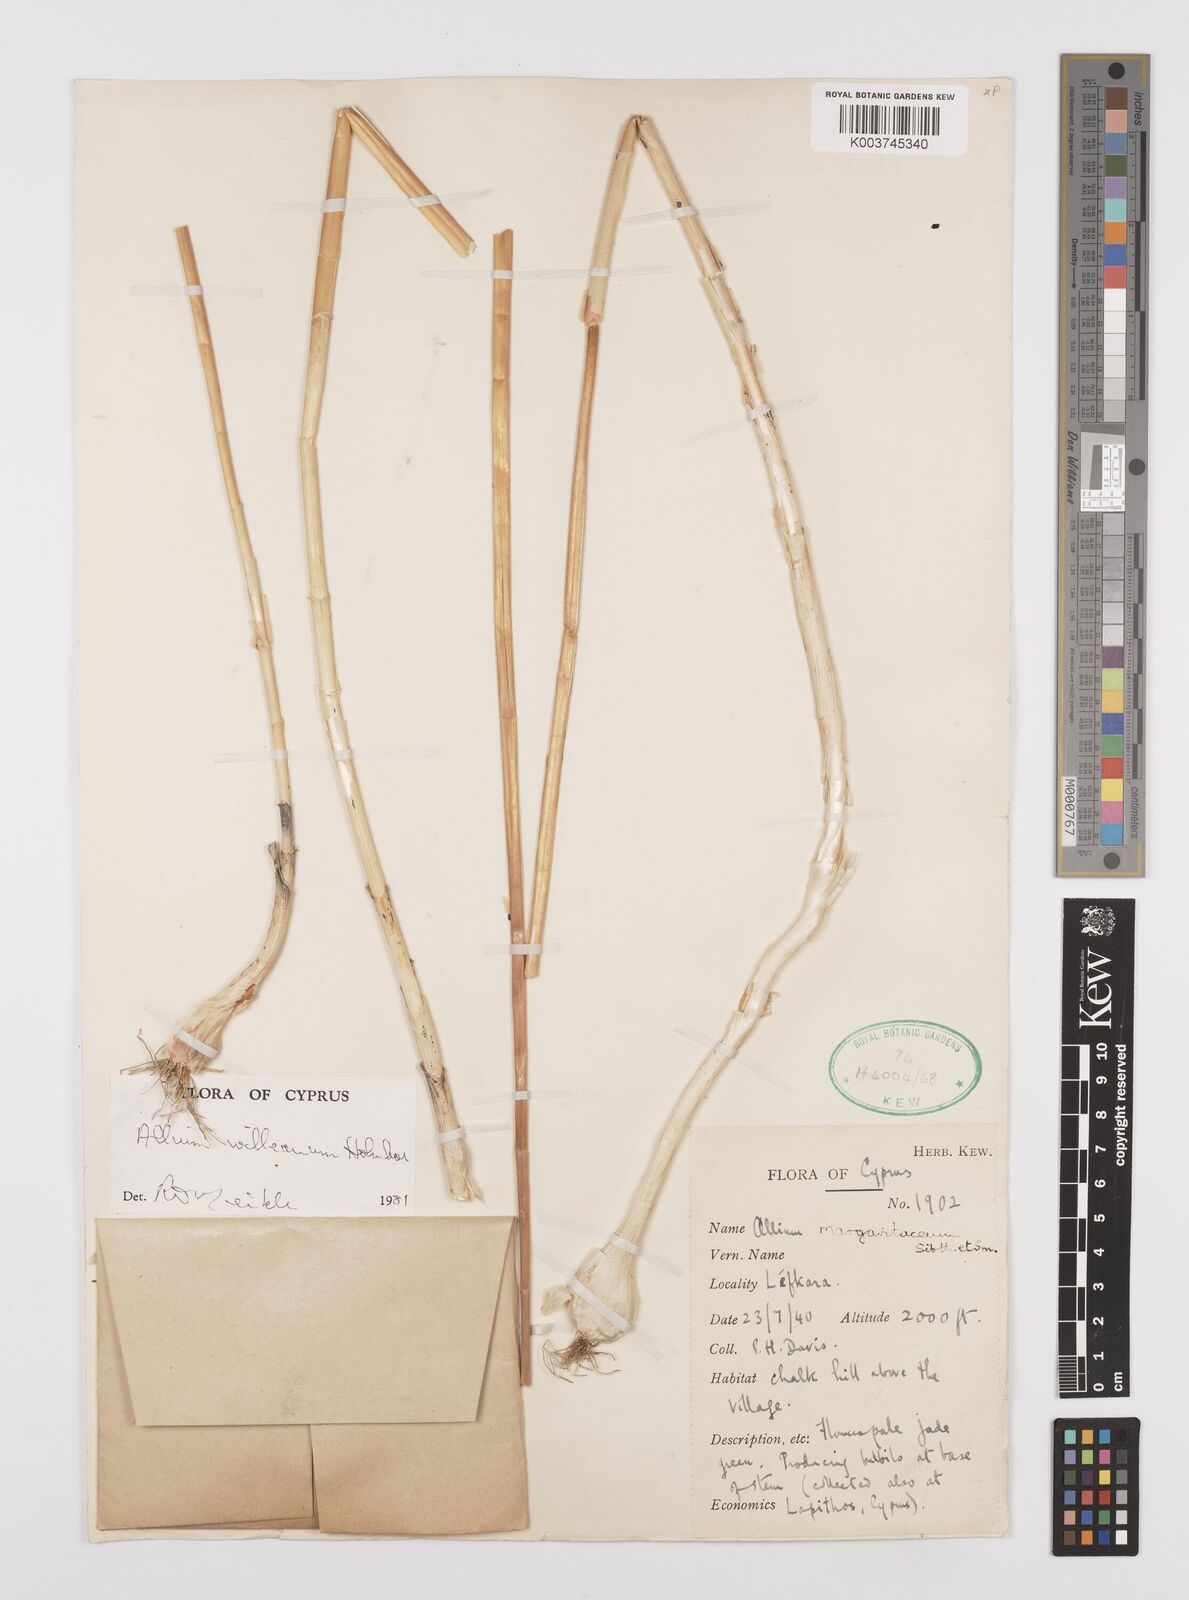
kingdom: Plantae
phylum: Tracheophyta
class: Liliopsida
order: Asparagales
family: Amaryllidaceae
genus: Allium
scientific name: Allium willeanum
